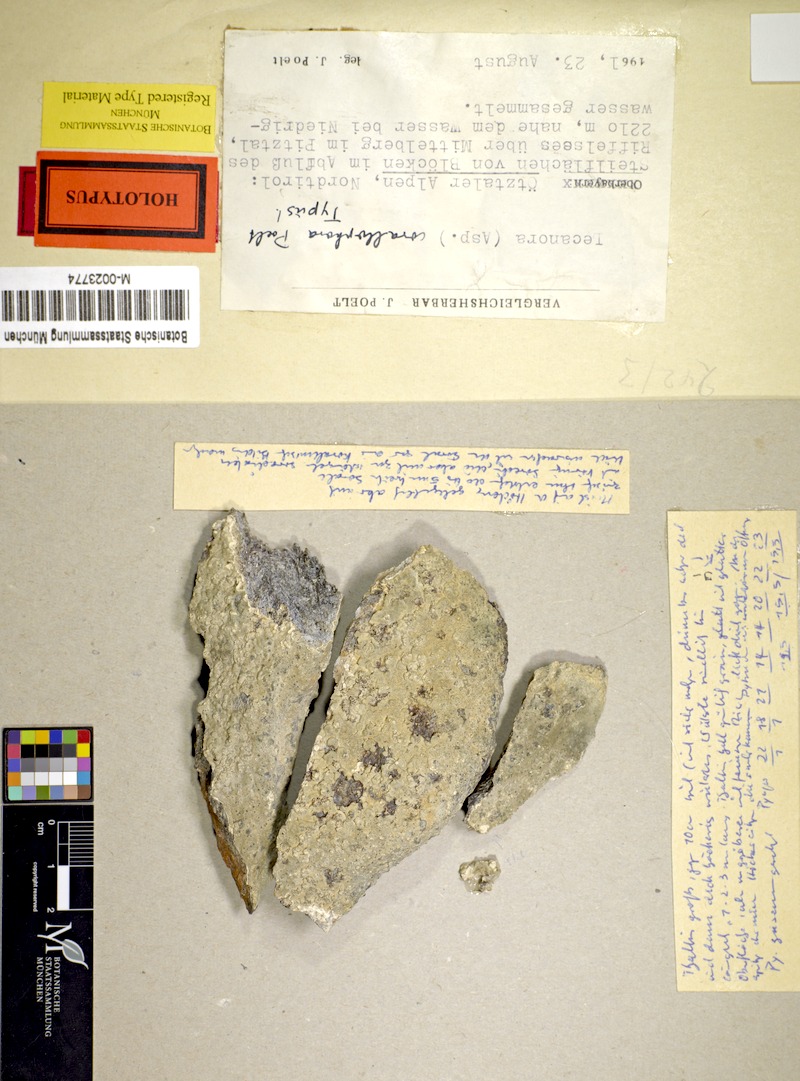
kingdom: Fungi
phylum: Ascomycota
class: Lecanoromycetes
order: Pertusariales
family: Megasporaceae
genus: Aspicilia
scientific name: Aspicilia corallophora
